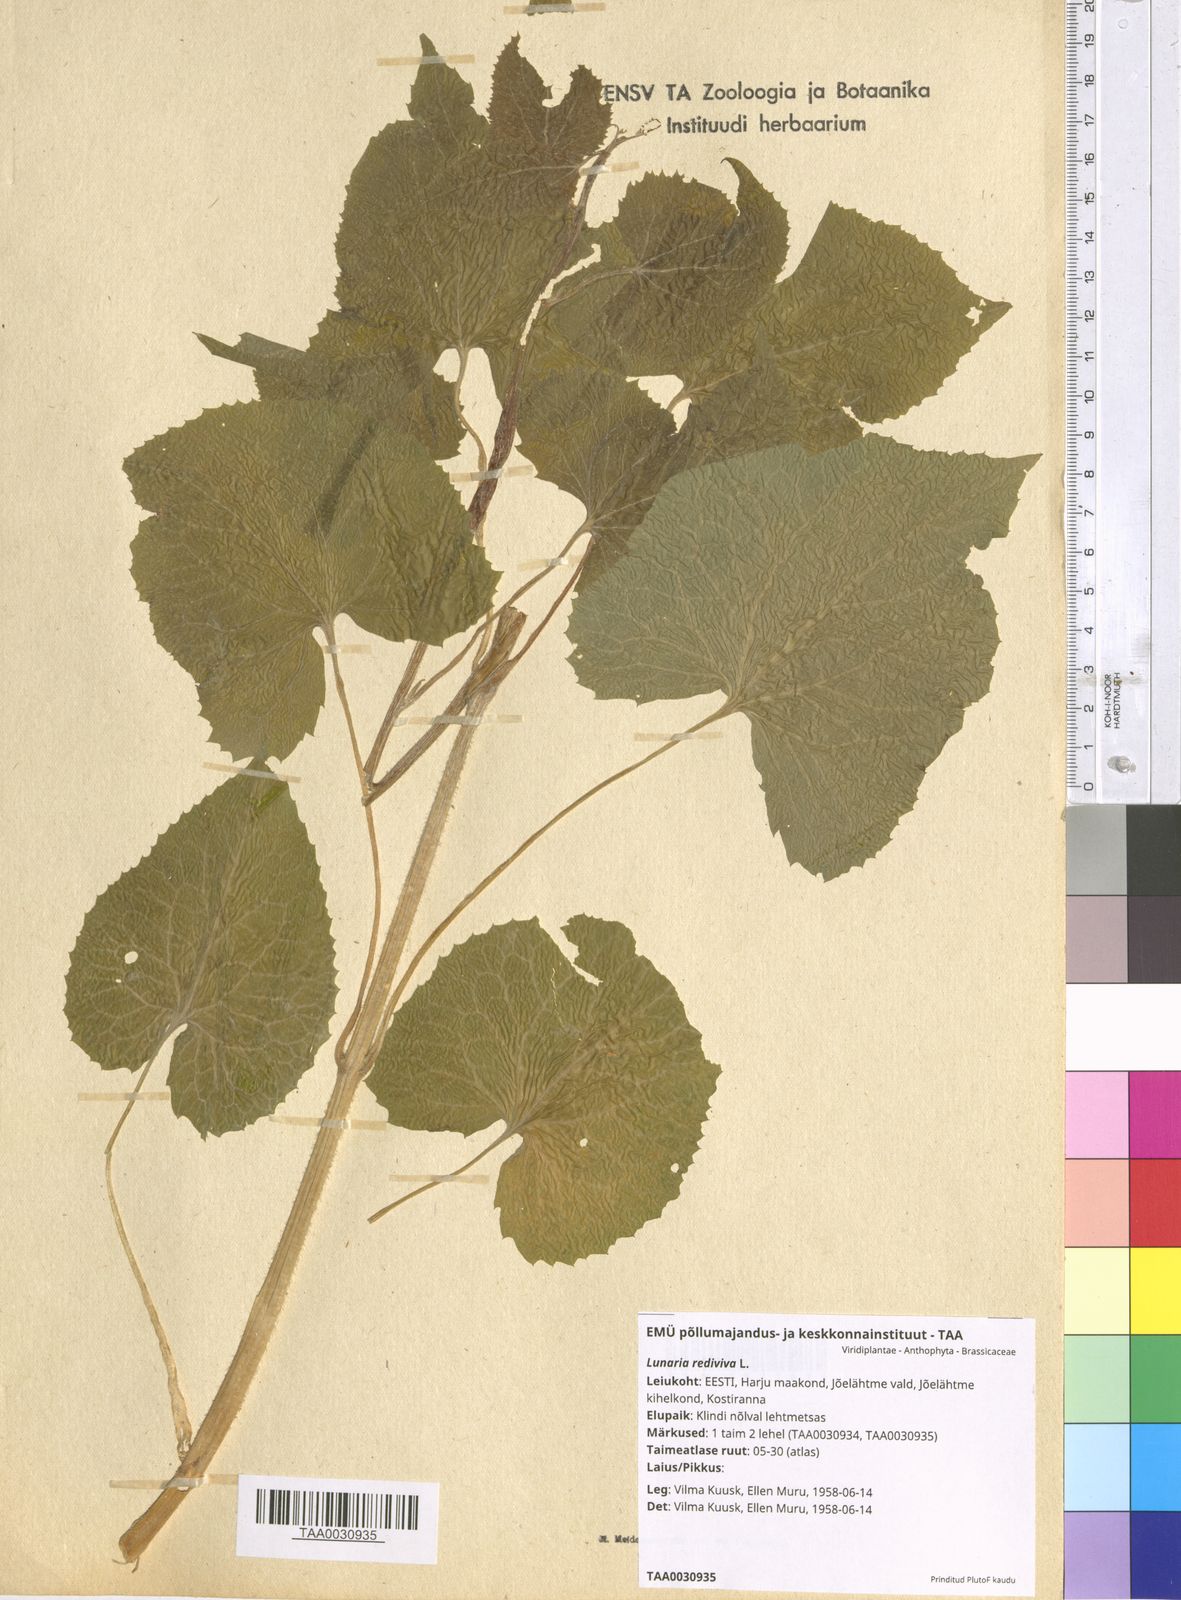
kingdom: Plantae
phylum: Tracheophyta
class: Magnoliopsida
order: Brassicales
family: Brassicaceae
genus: Lunaria
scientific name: Lunaria rediviva
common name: Perennial honesty
